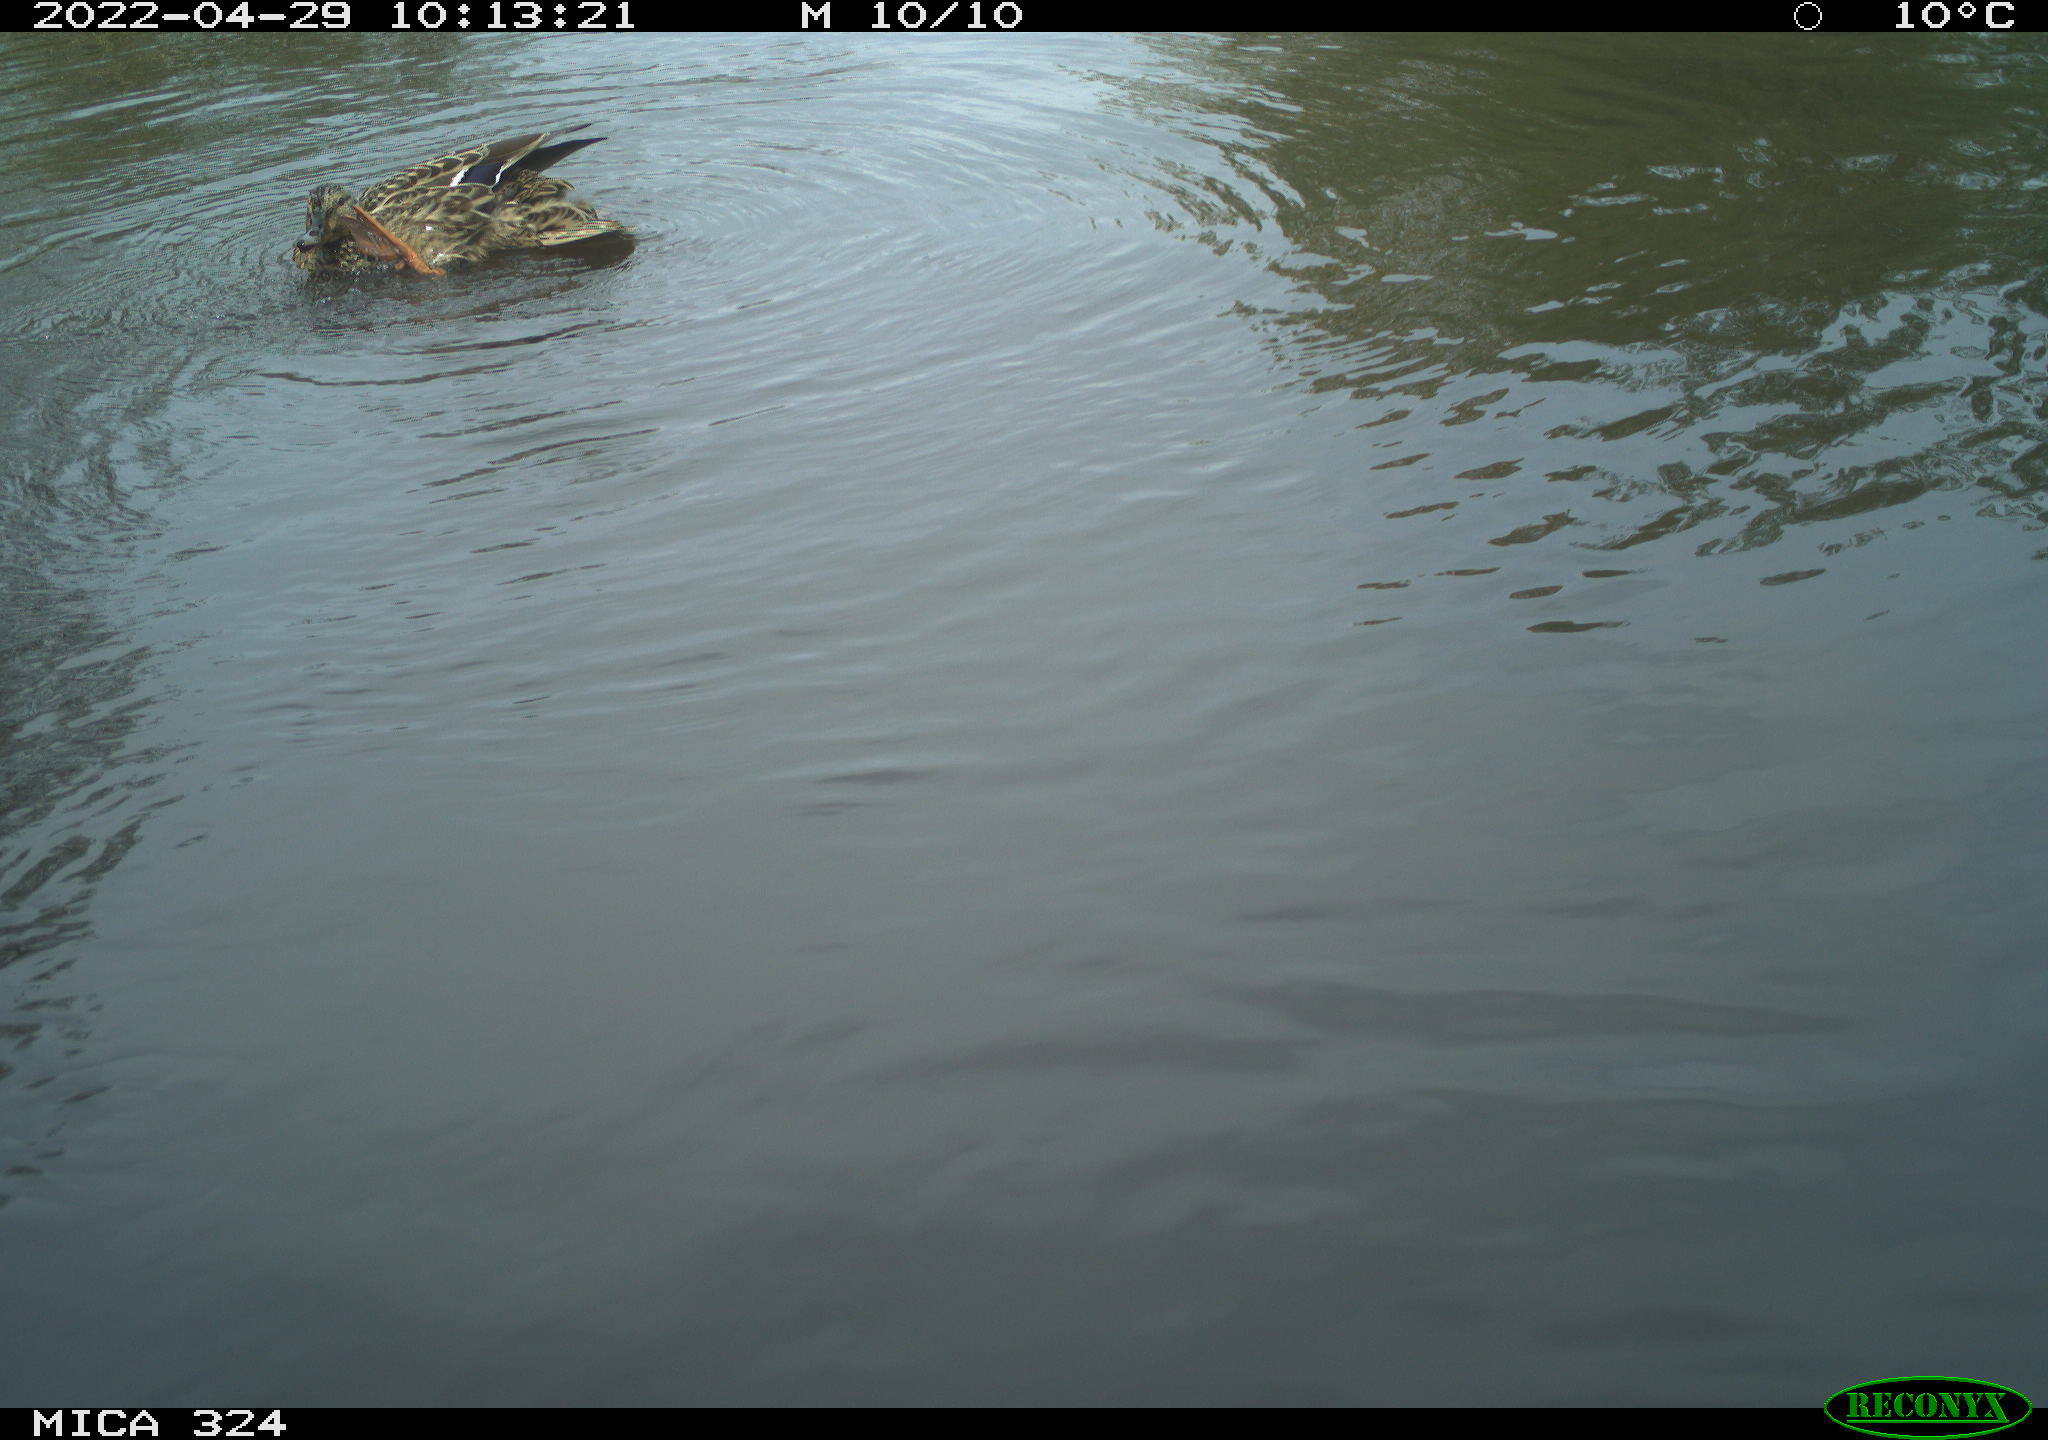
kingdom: Animalia
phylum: Chordata
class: Aves
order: Anseriformes
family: Anatidae
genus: Anas
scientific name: Anas platyrhynchos
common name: Mallard
